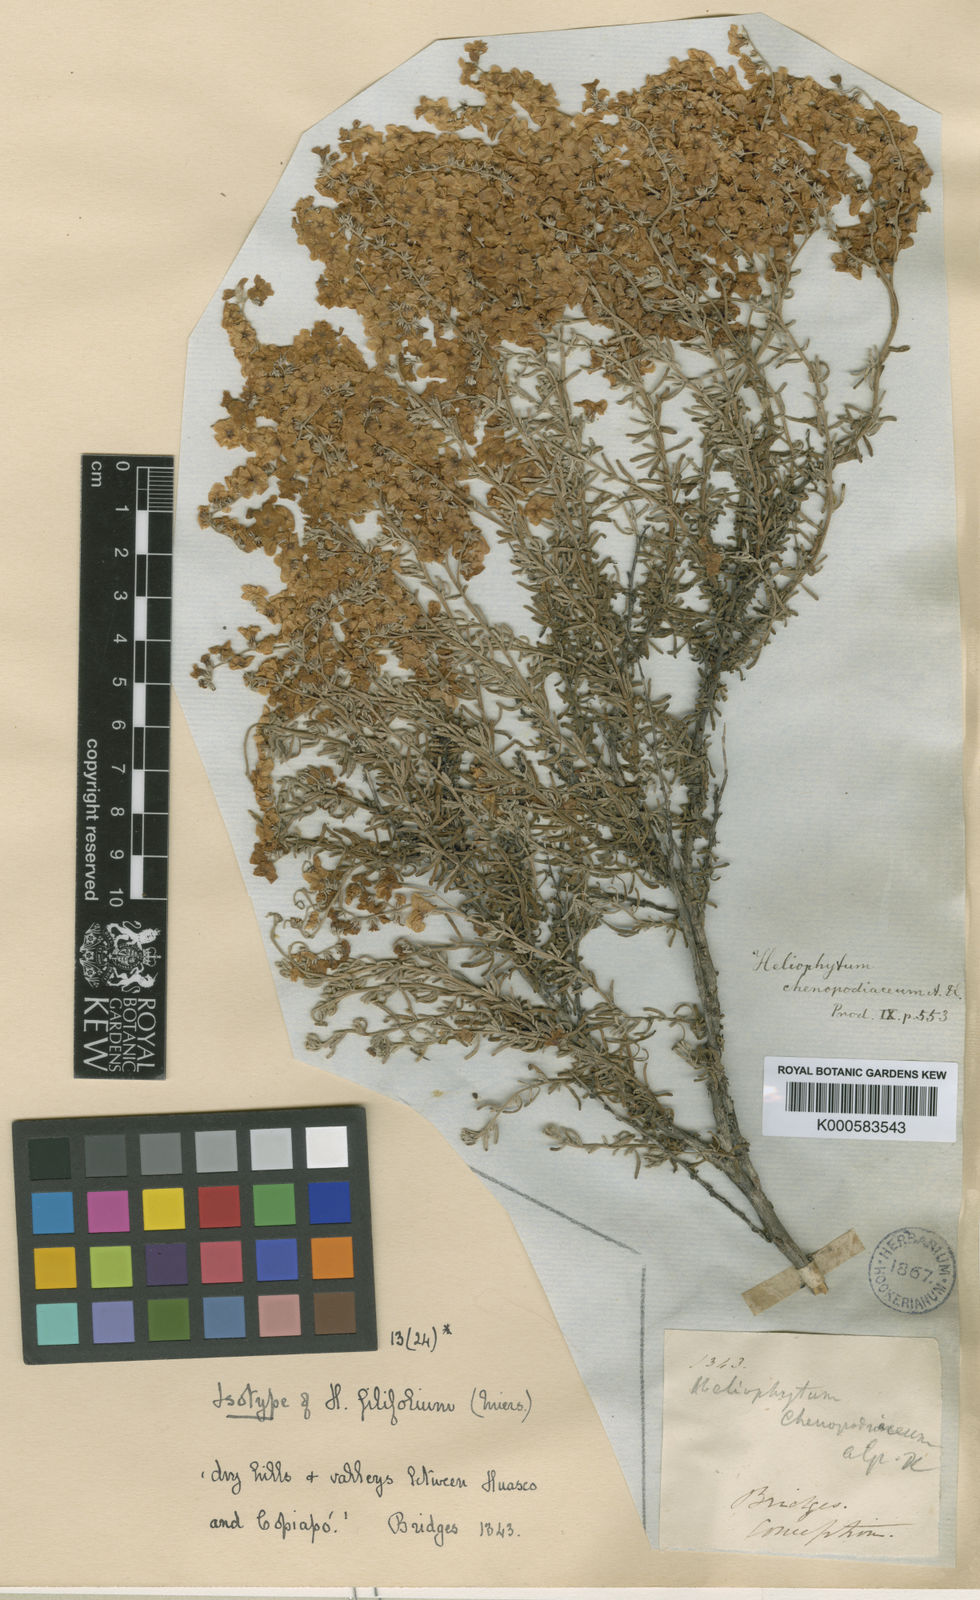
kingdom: Plantae
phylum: Tracheophyta
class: Magnoliopsida
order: Boraginales
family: Heliotropiaceae
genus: Heliotropium
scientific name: Heliotropium chenopodiaceum
